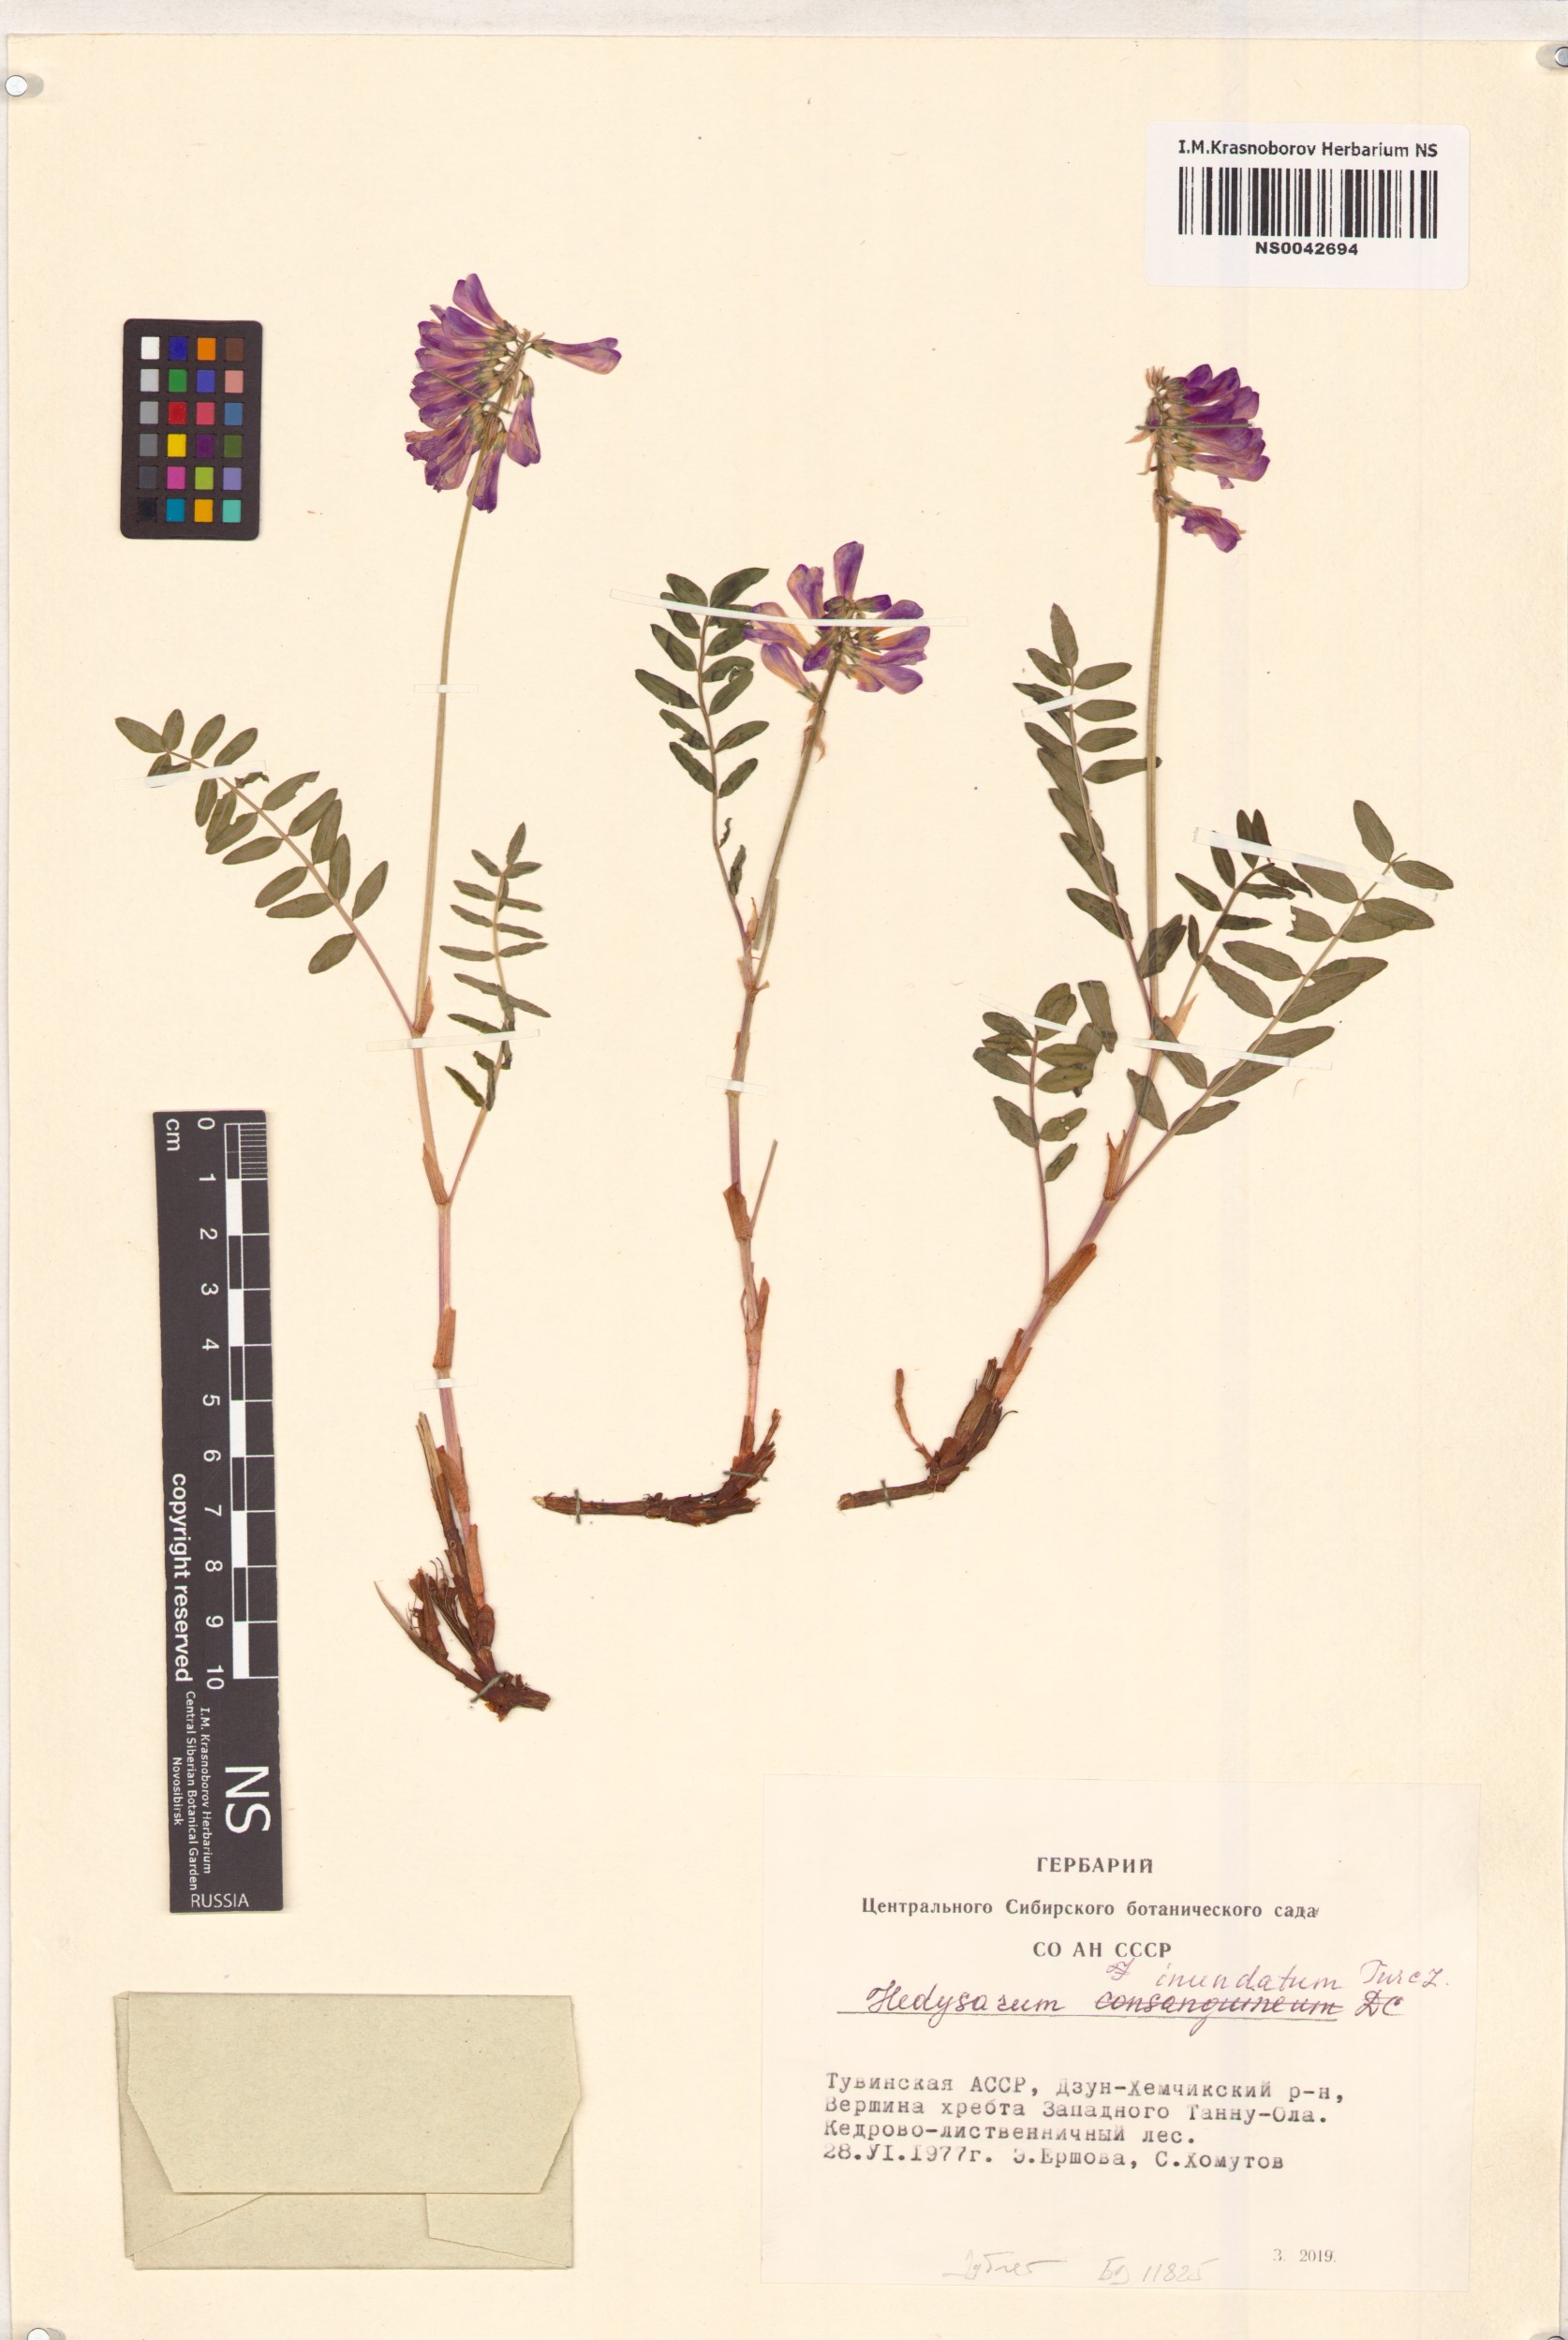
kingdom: Plantae
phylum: Tracheophyta
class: Magnoliopsida
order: Fabales
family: Fabaceae
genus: Hedysarum
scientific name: Hedysarum inundatum
